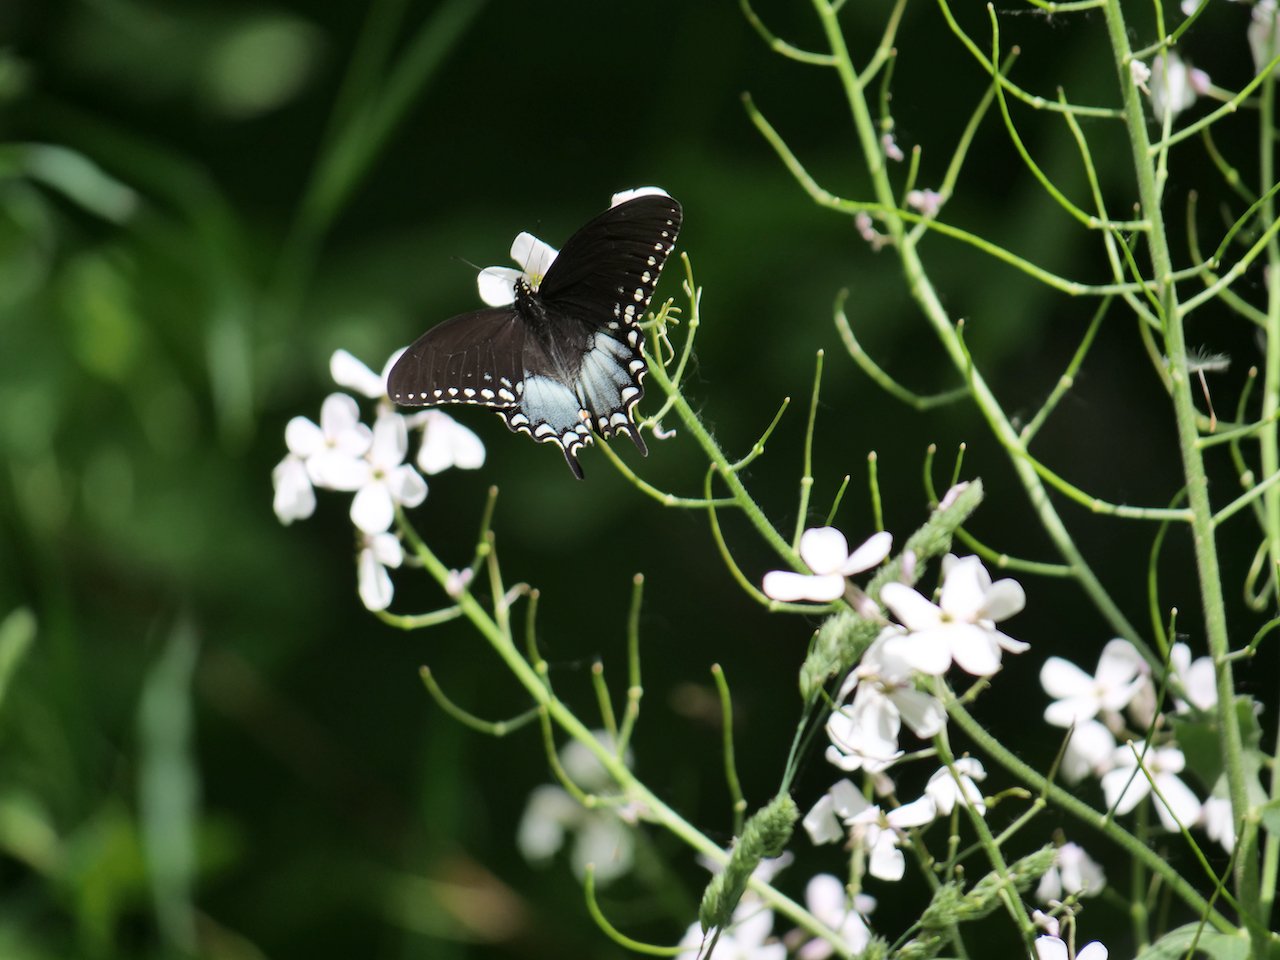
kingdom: Animalia
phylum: Arthropoda
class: Insecta
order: Lepidoptera
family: Papilionidae
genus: Pterourus
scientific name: Pterourus troilus
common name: Spicebush Swallowtail
